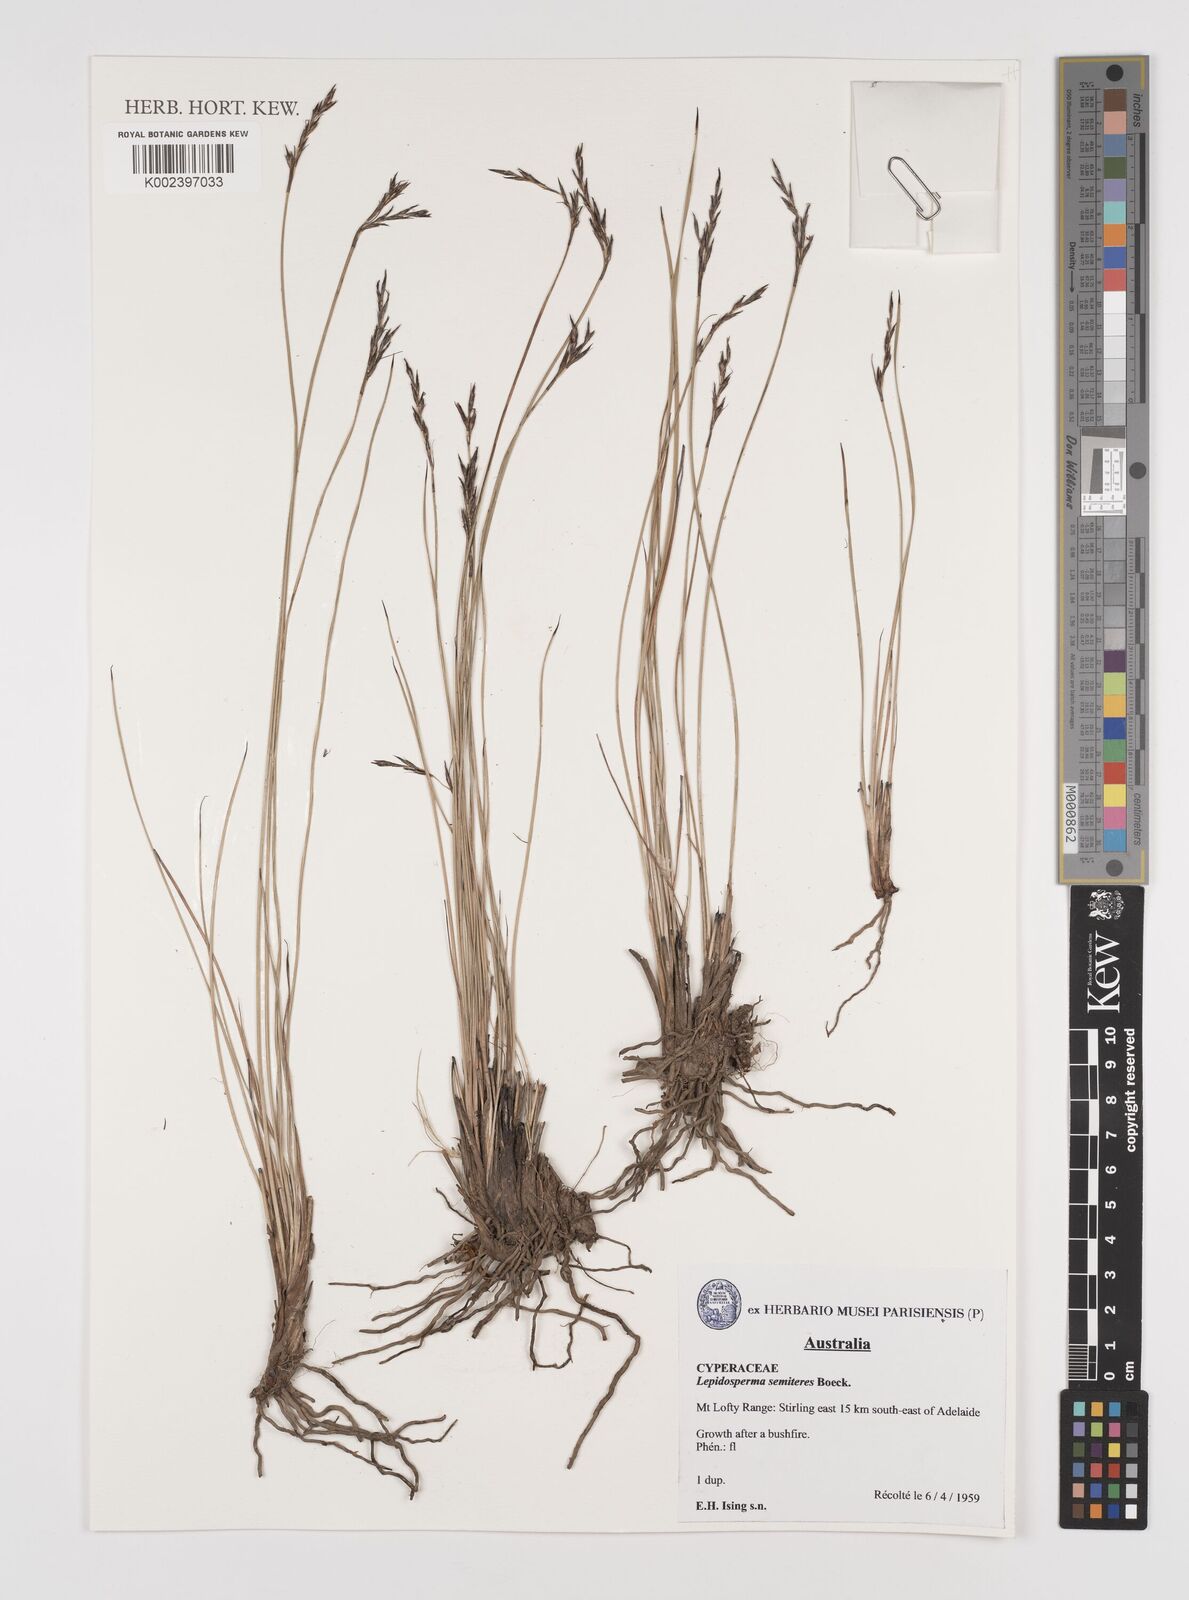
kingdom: Plantae
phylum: Tracheophyta
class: Liliopsida
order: Poales
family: Cyperaceae
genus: Lepidosperma
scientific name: Lepidosperma semiteres
